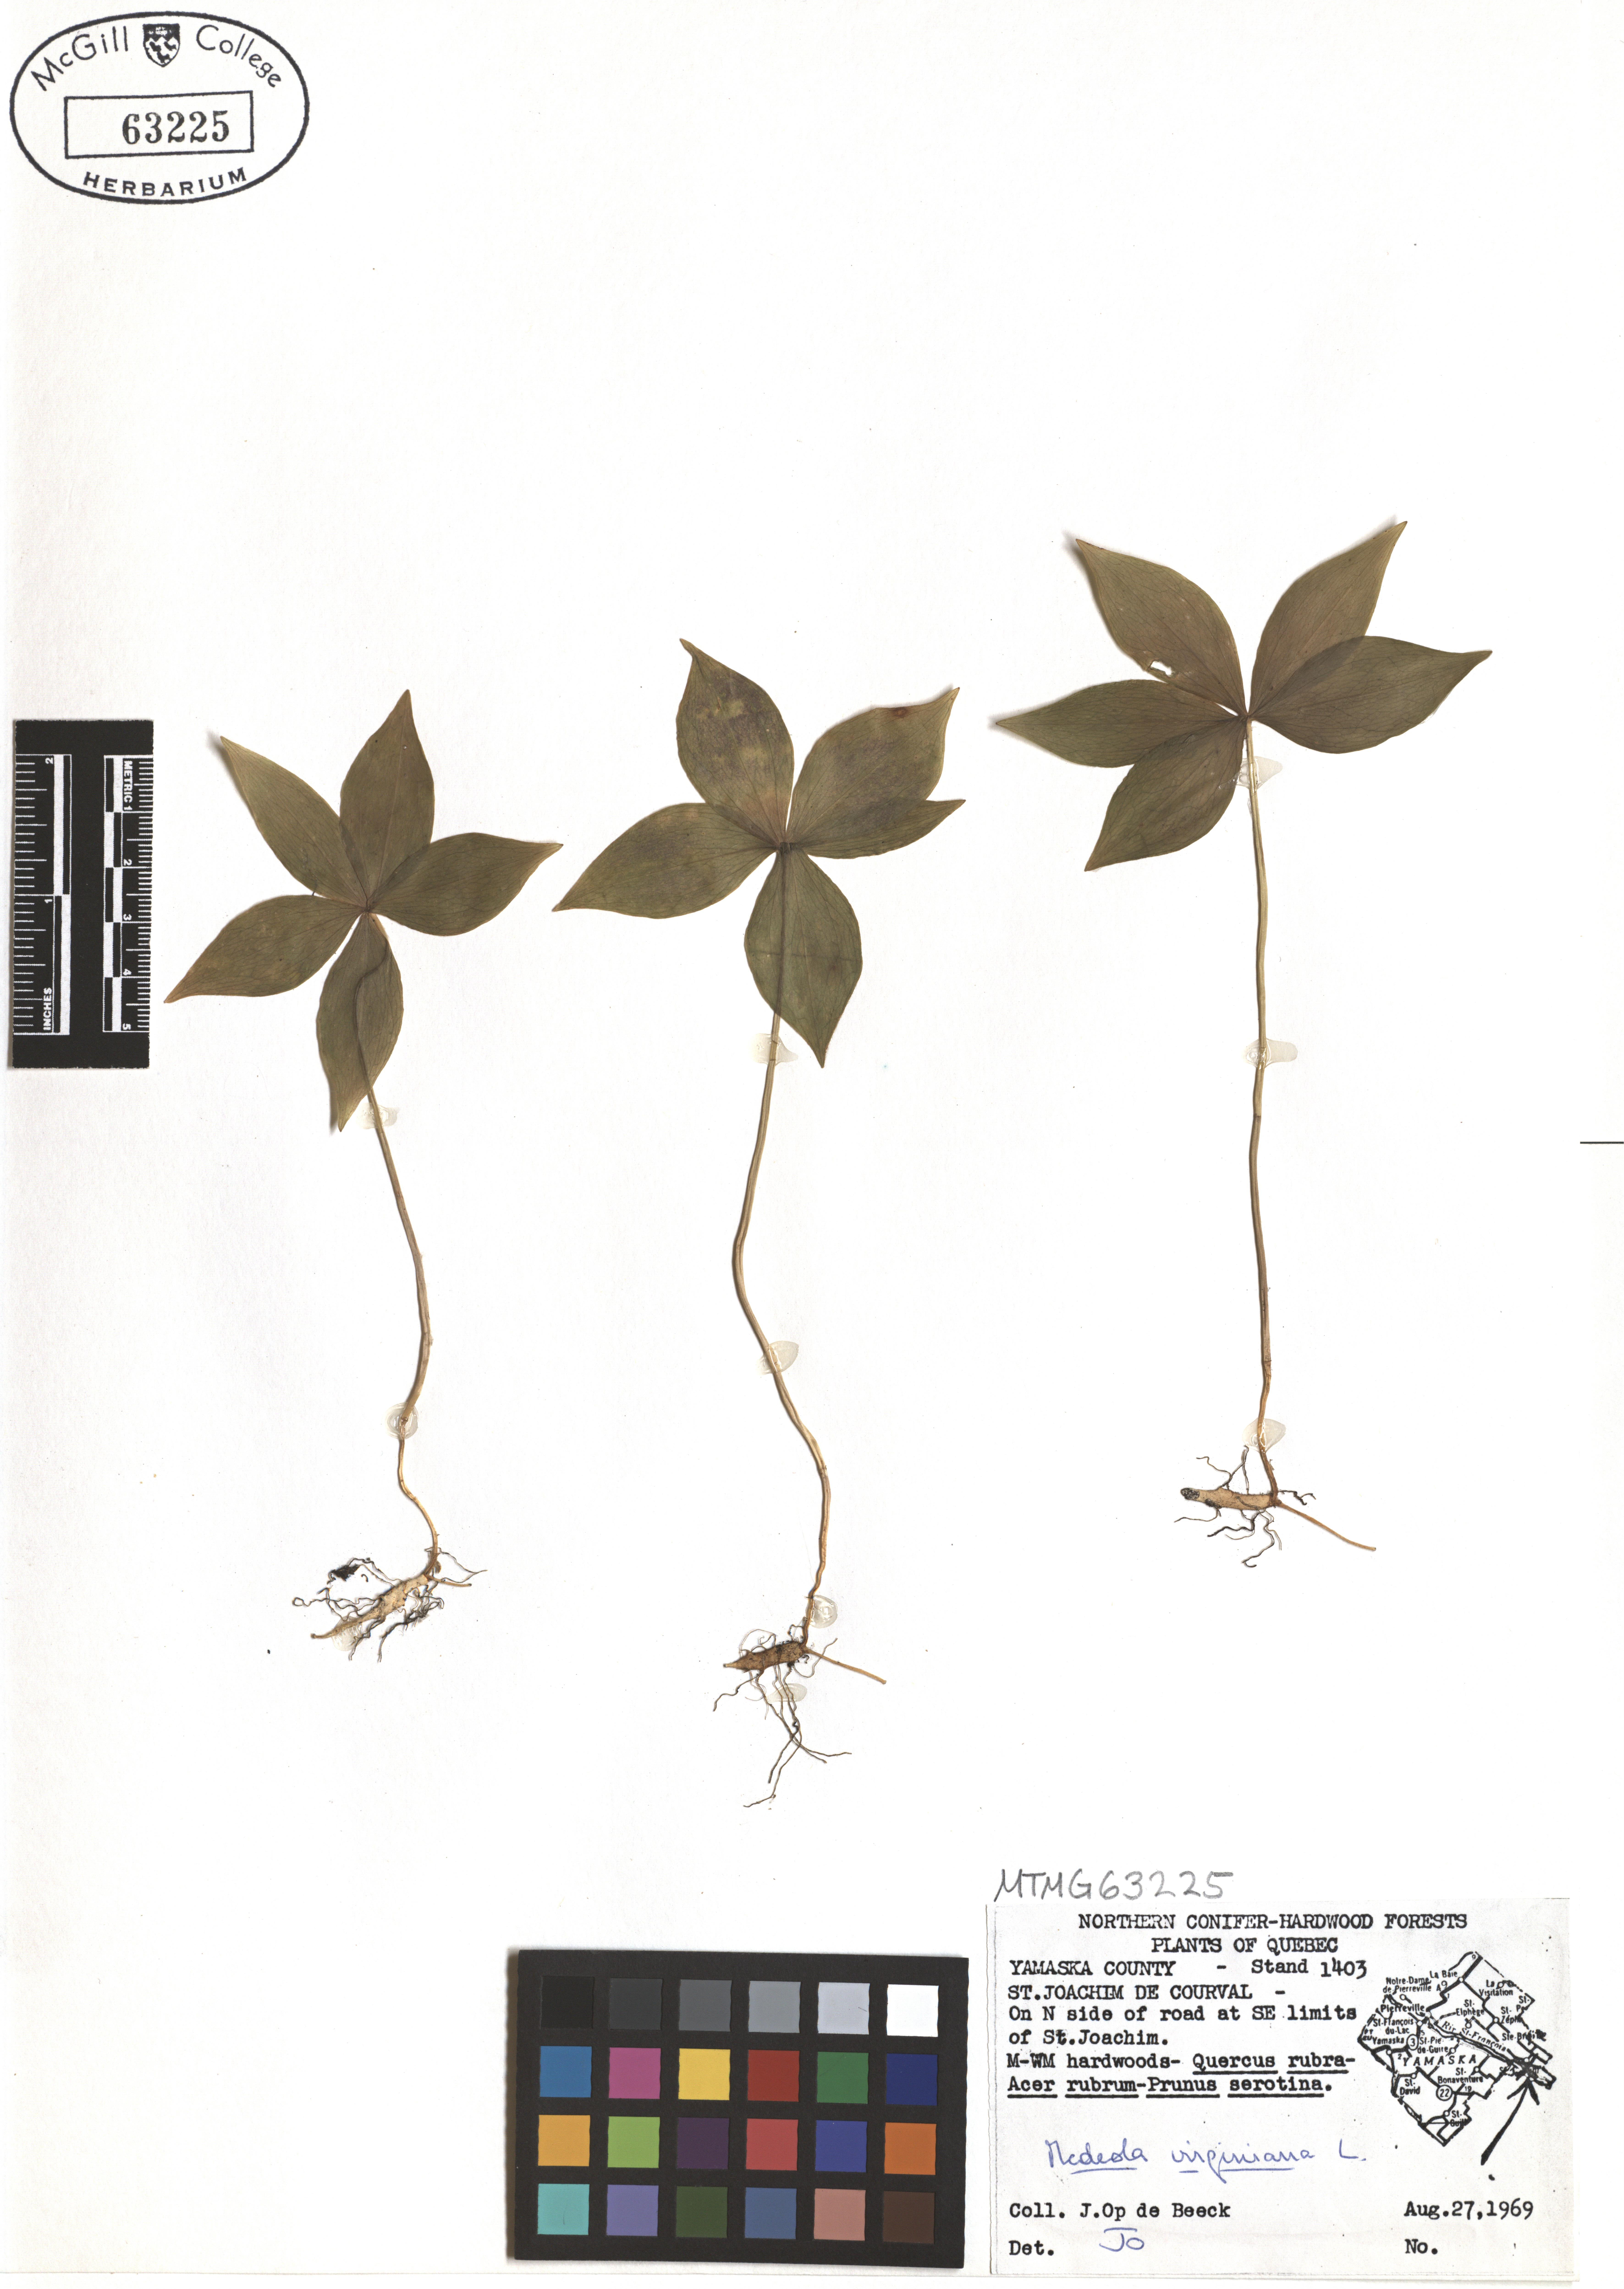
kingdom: Plantae
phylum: Tracheophyta
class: Liliopsida
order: Liliales
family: Liliaceae
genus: Medeola
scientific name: Medeola virginiana
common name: Indian cucumber-root
